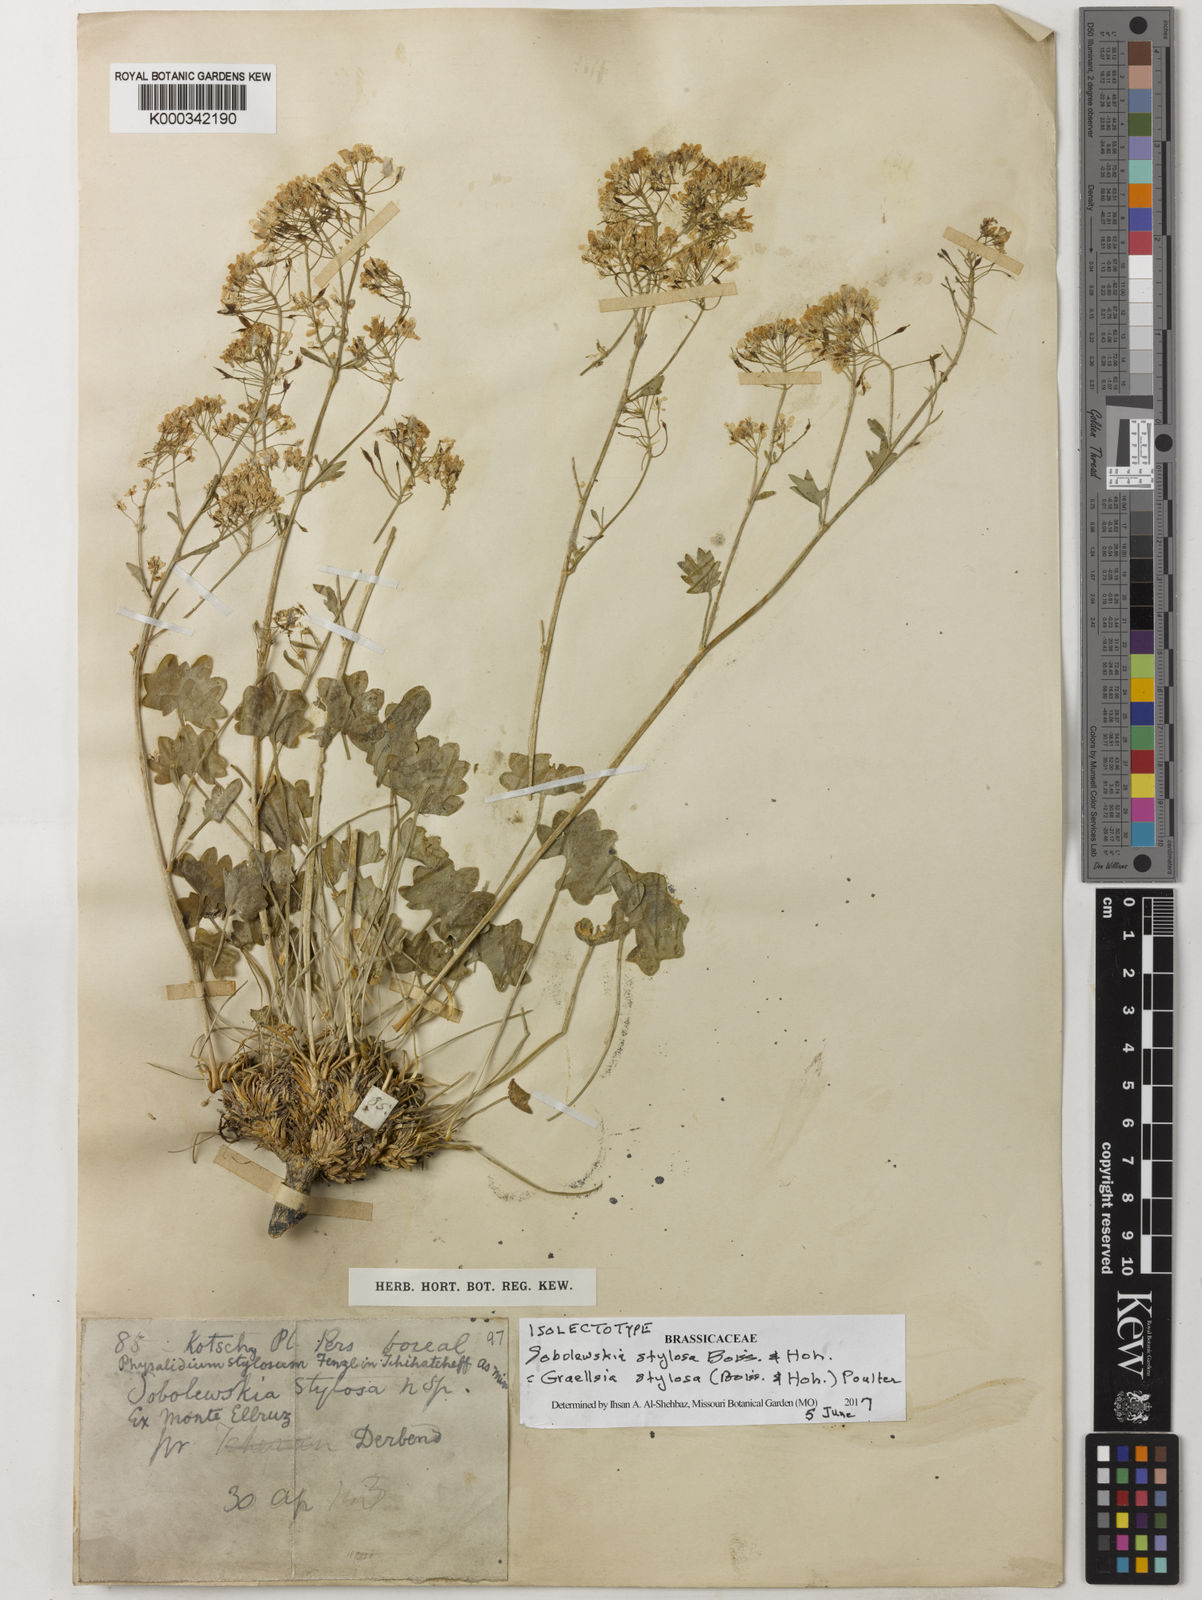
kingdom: Plantae
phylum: Tracheophyta
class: Magnoliopsida
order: Brassicales
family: Brassicaceae
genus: Graellsia
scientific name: Graellsia stylosa
